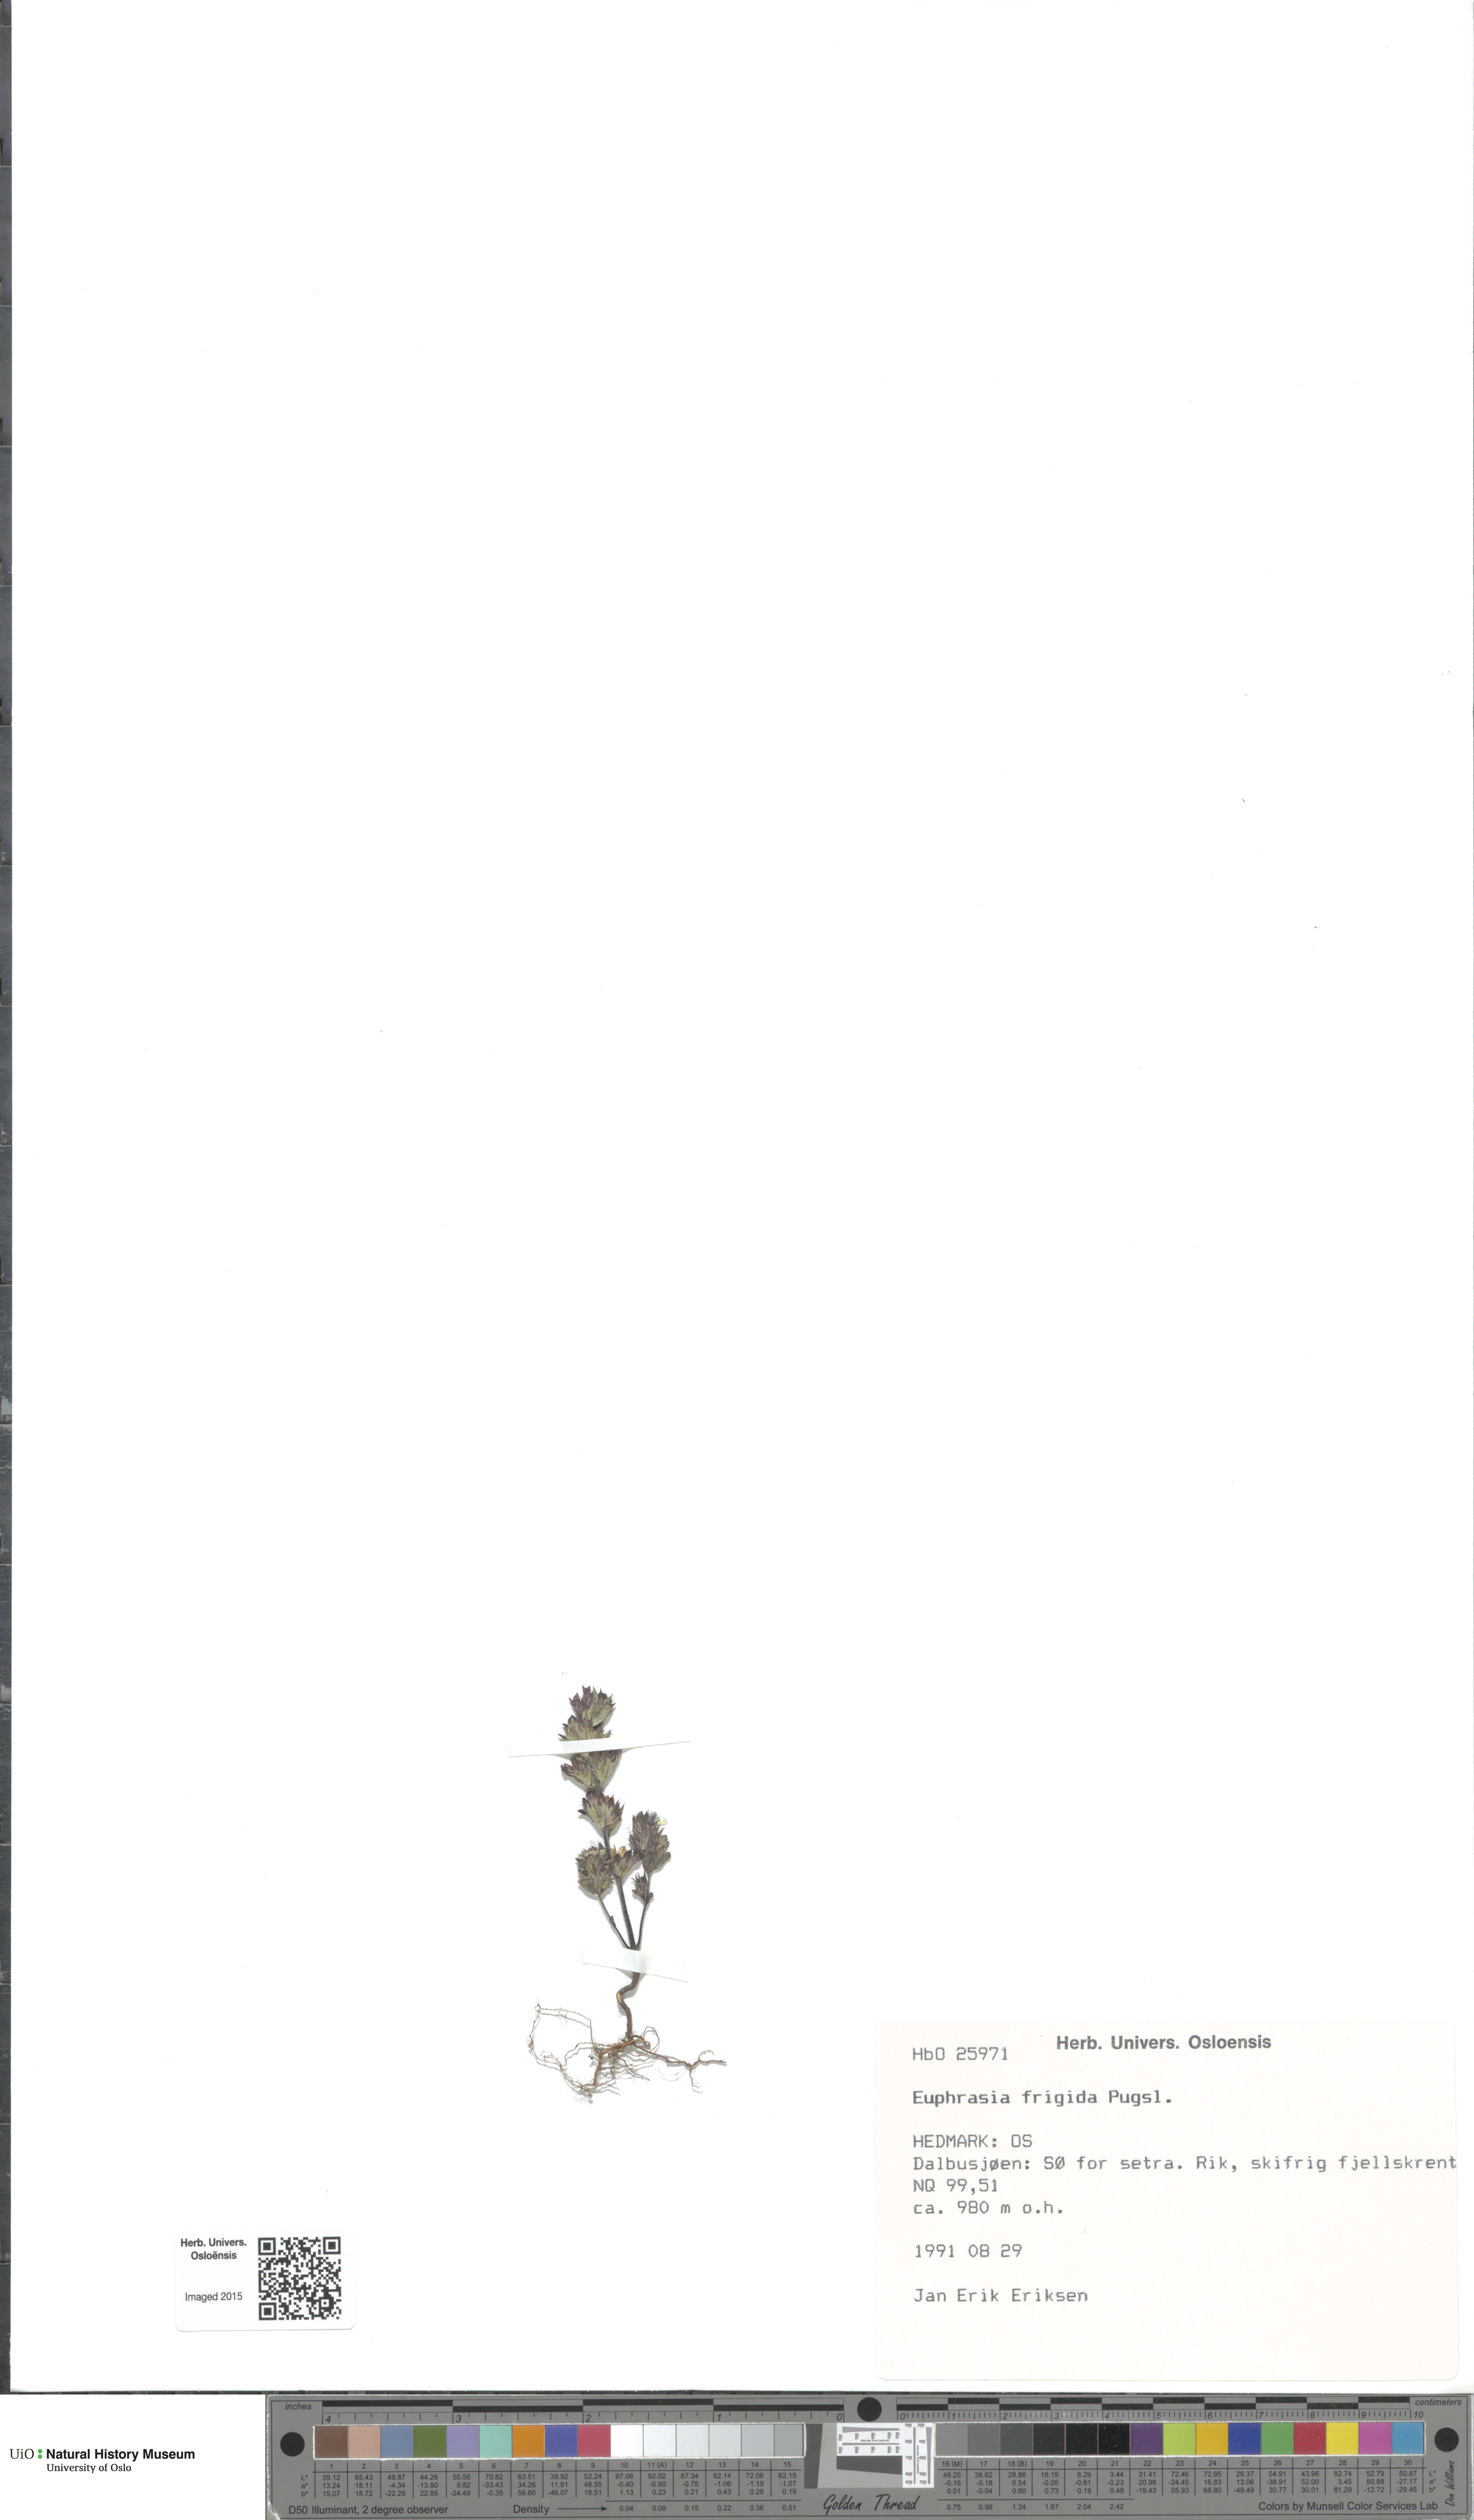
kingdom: Plantae
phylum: Tracheophyta
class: Magnoliopsida
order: Lamiales
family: Orobanchaceae
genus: Euphrasia
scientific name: Euphrasia frigida
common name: An eyebright
